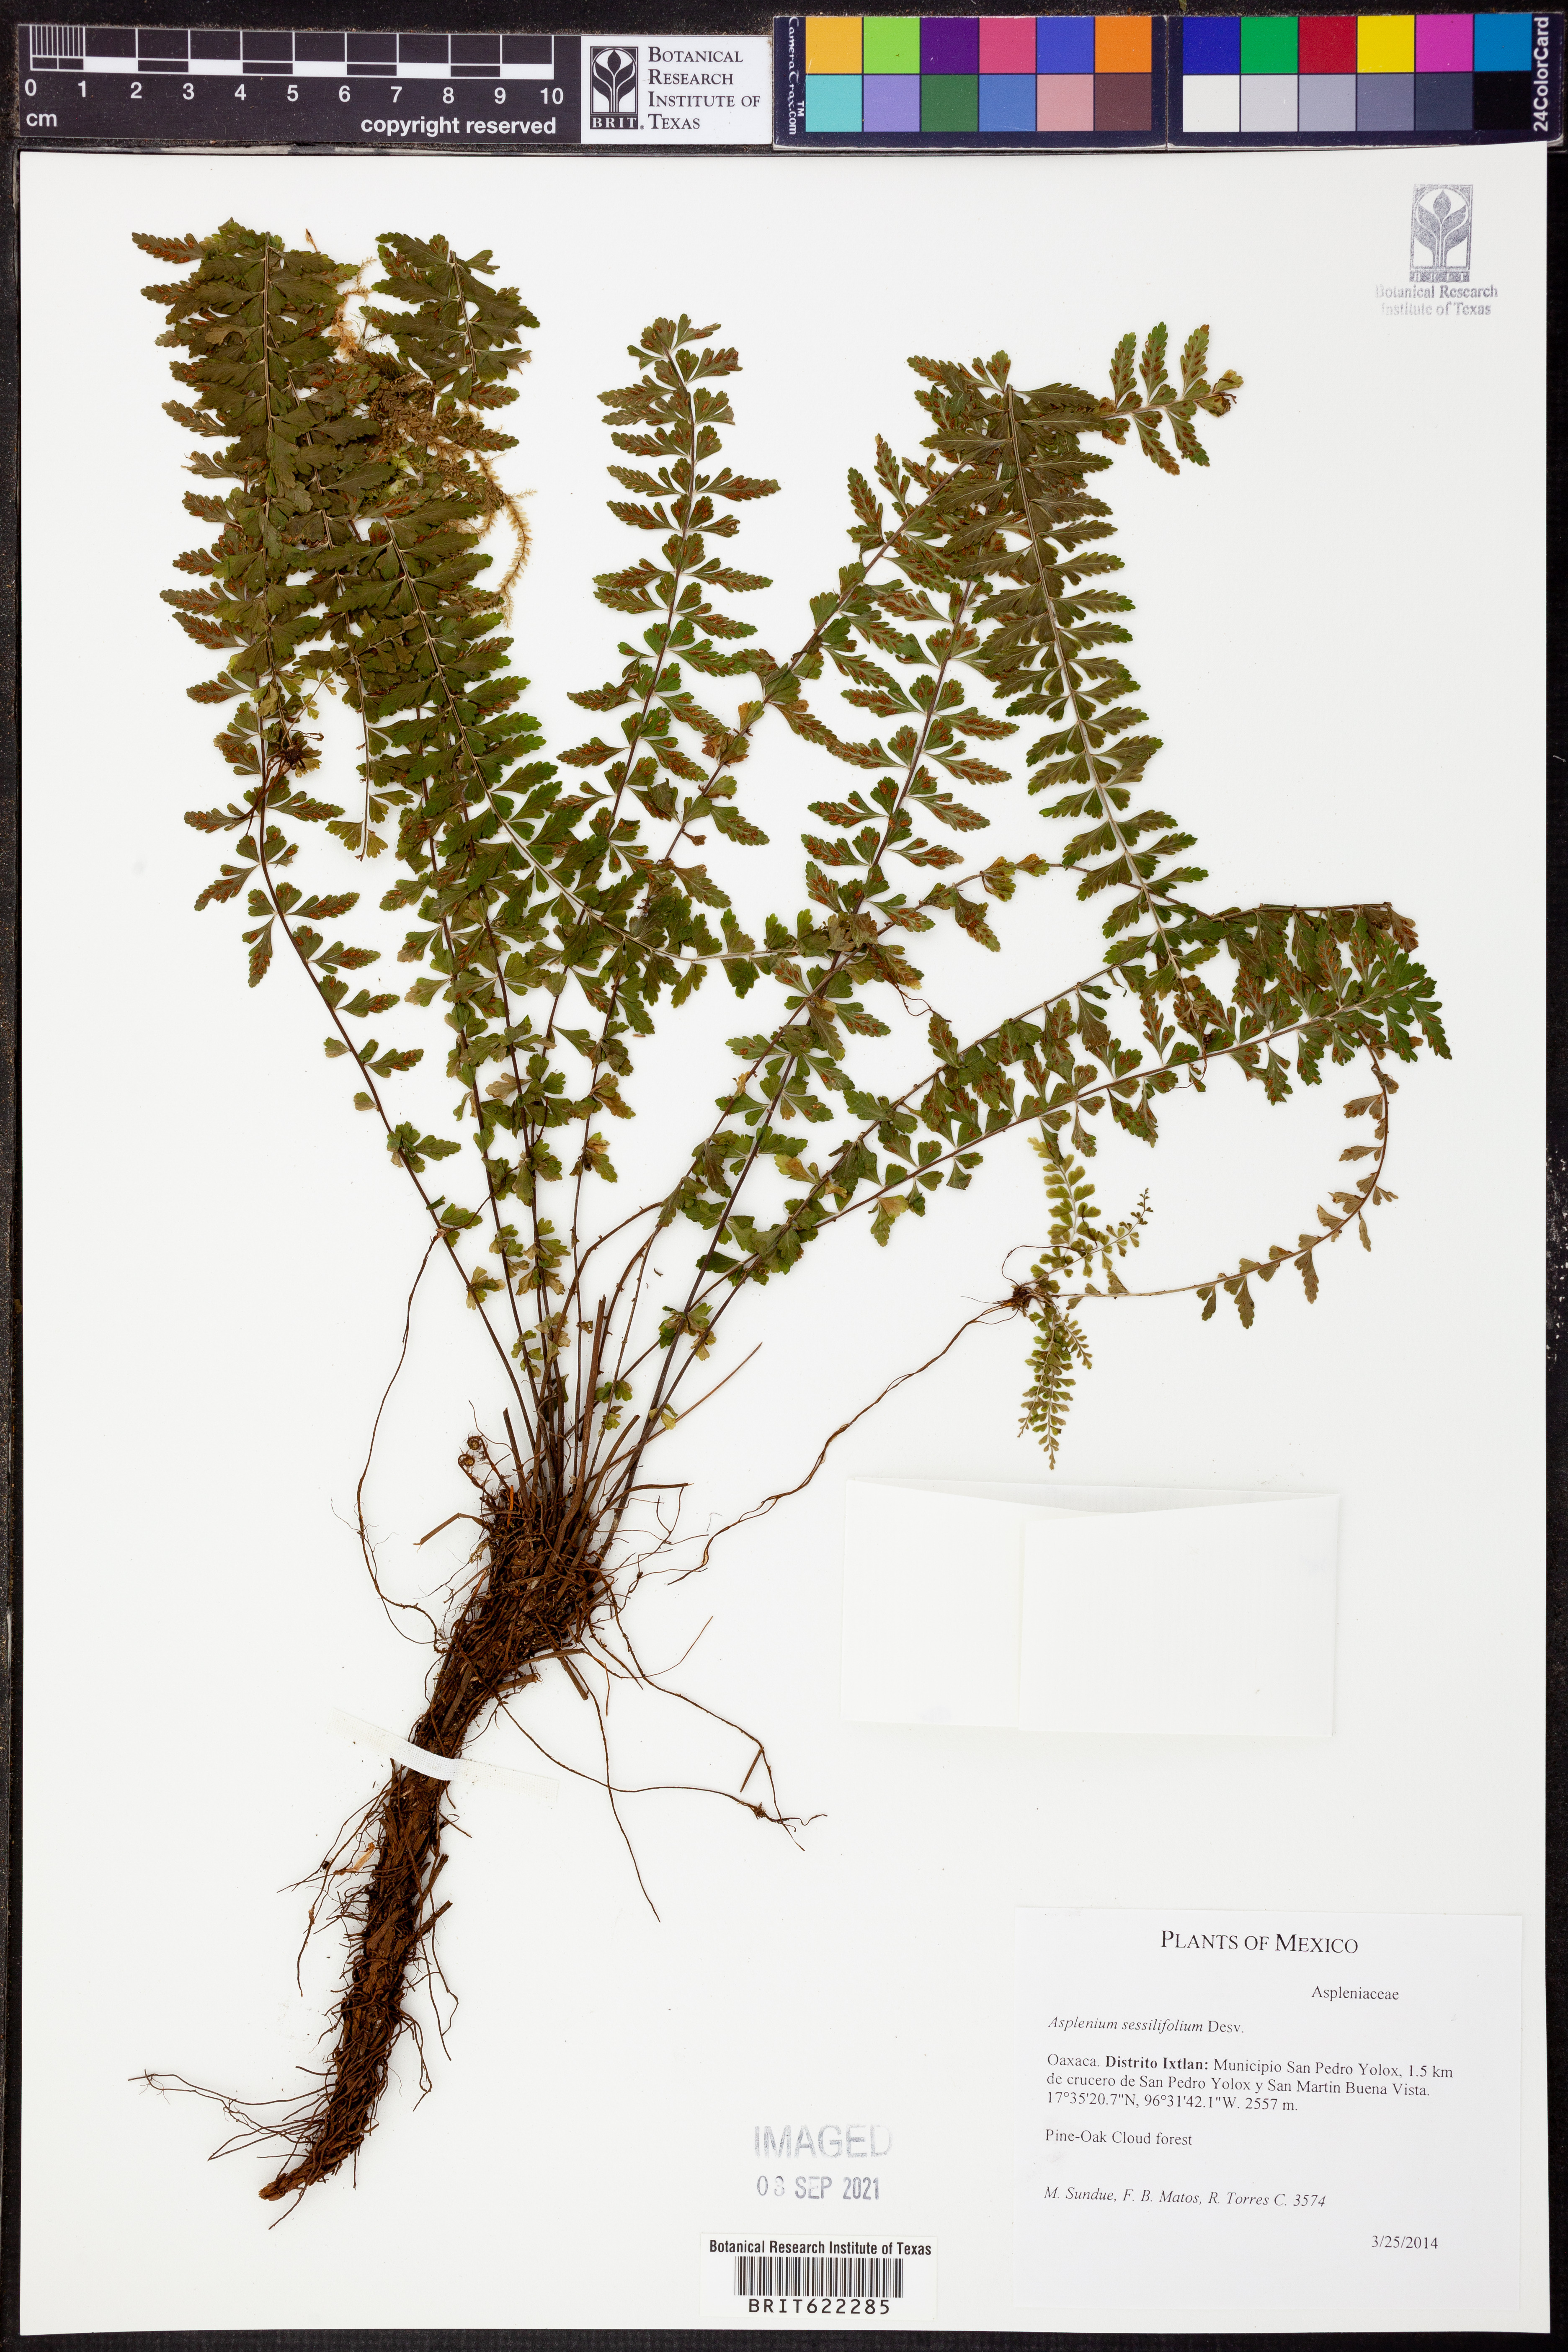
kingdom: Plantae
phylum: Tracheophyta
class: Polypodiopsida
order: Polypodiales
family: Aspleniaceae
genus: Asplenium
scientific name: Asplenium sessilifolium
